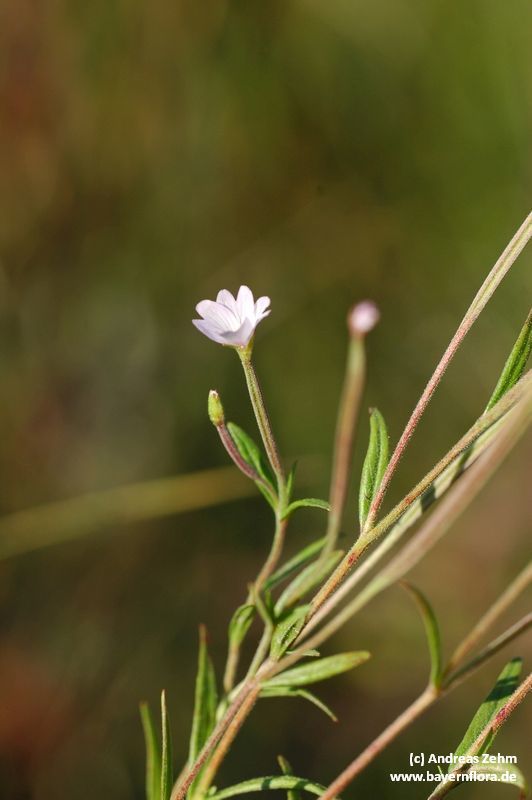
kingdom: Plantae
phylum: Tracheophyta
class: Magnoliopsida
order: Myrtales
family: Onagraceae
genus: Epilobium
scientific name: Epilobium palustre
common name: Marsh willowherb
